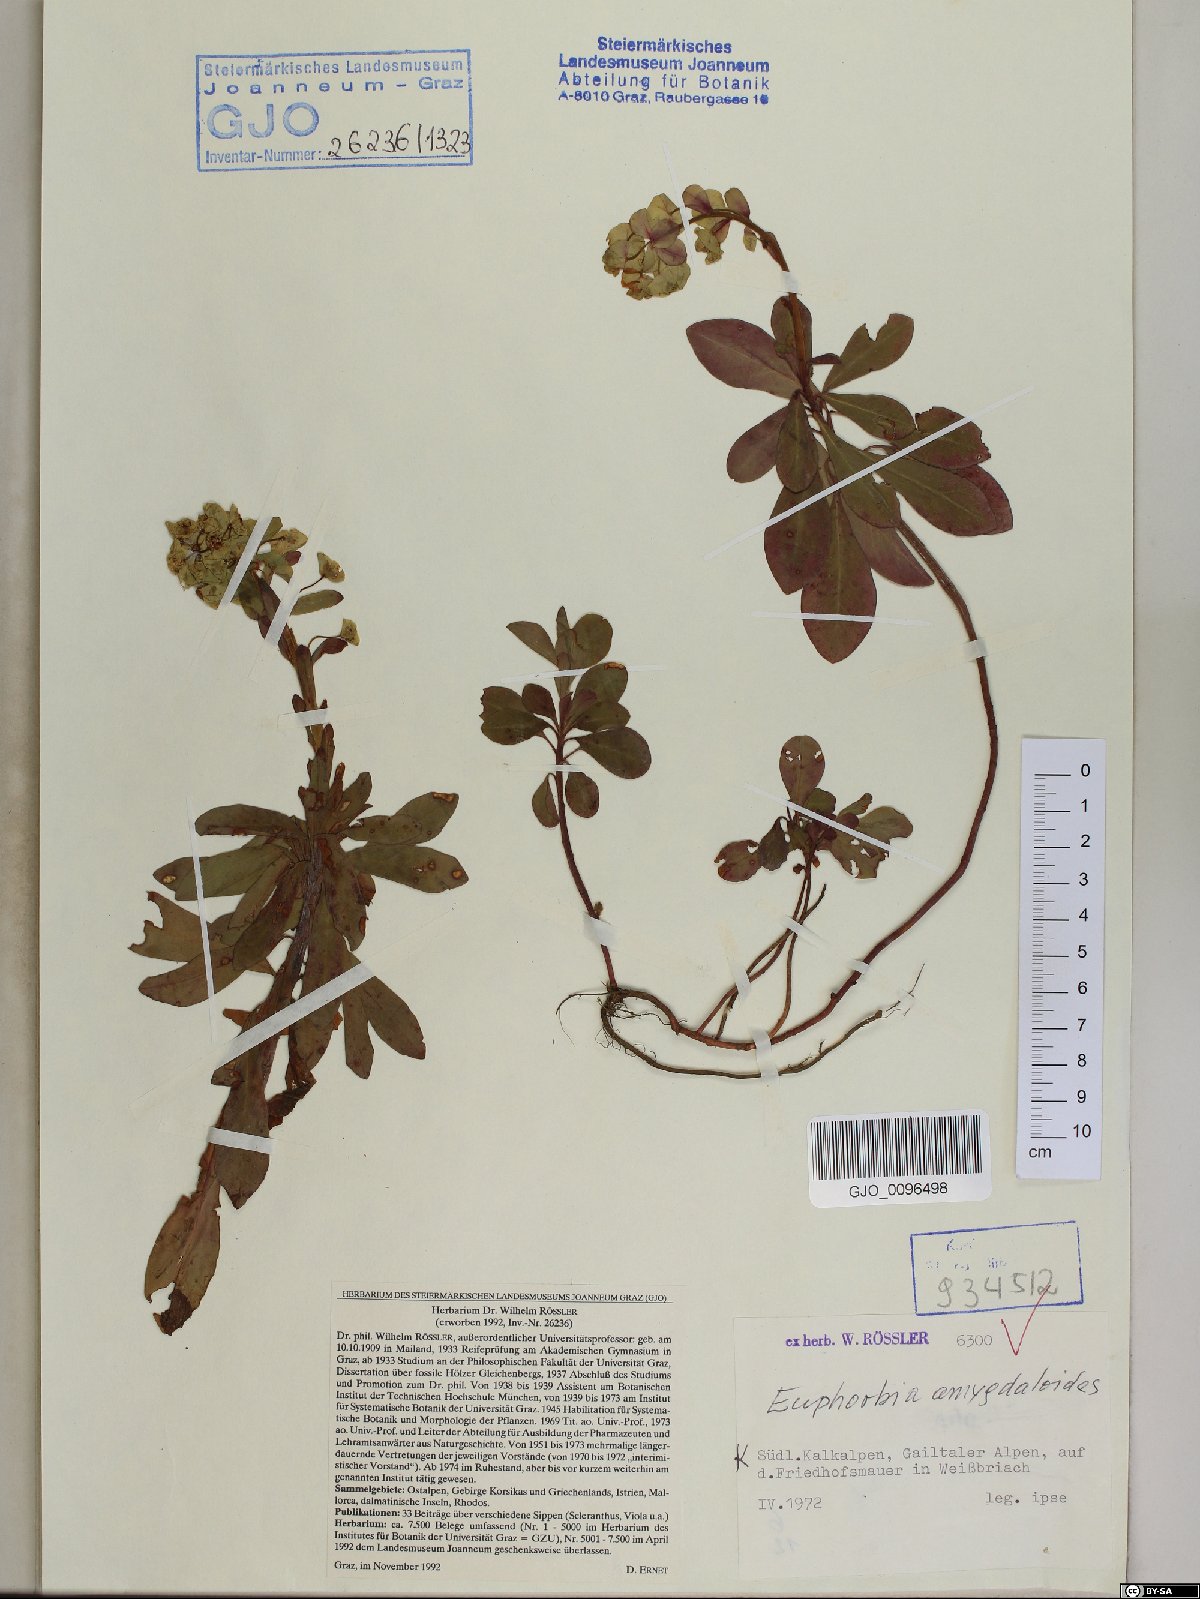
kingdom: Plantae
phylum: Tracheophyta
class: Magnoliopsida
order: Malpighiales
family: Euphorbiaceae
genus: Euphorbia
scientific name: Euphorbia amygdaloides
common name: Wood spurge
